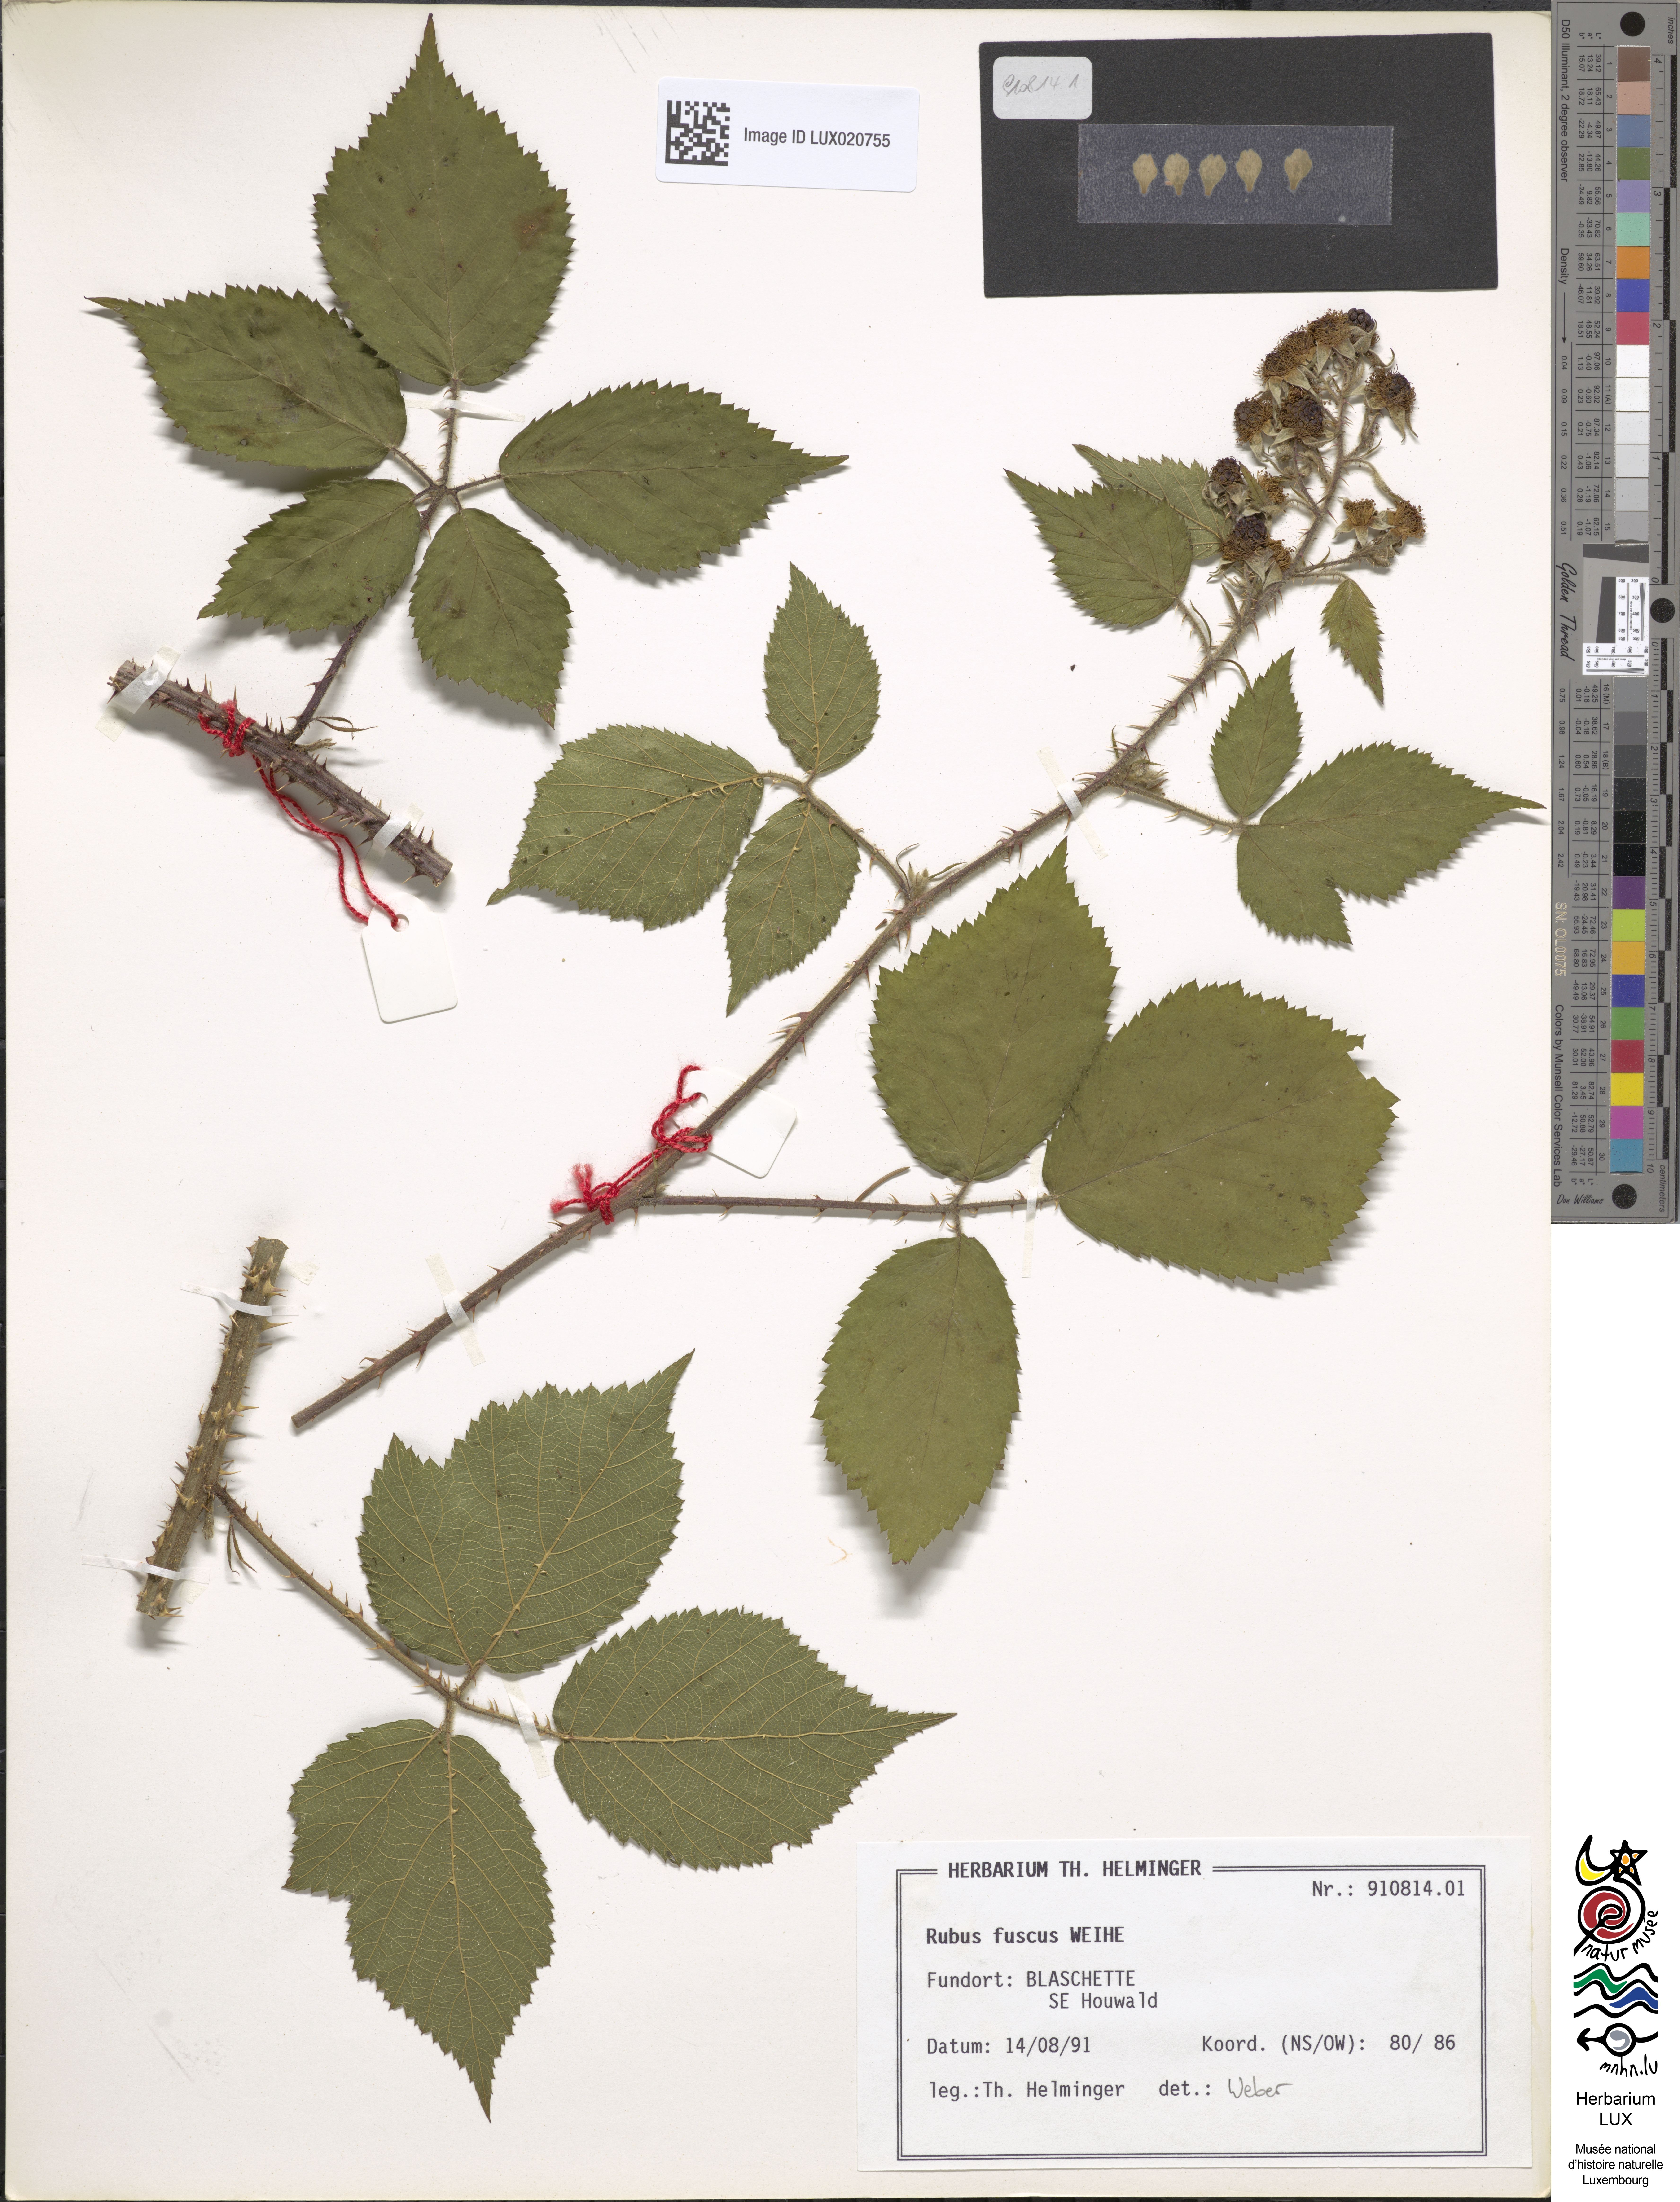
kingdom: Plantae
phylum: Tracheophyta
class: Magnoliopsida
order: Rosales
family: Rosaceae
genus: Rubus
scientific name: Rubus fuscus
